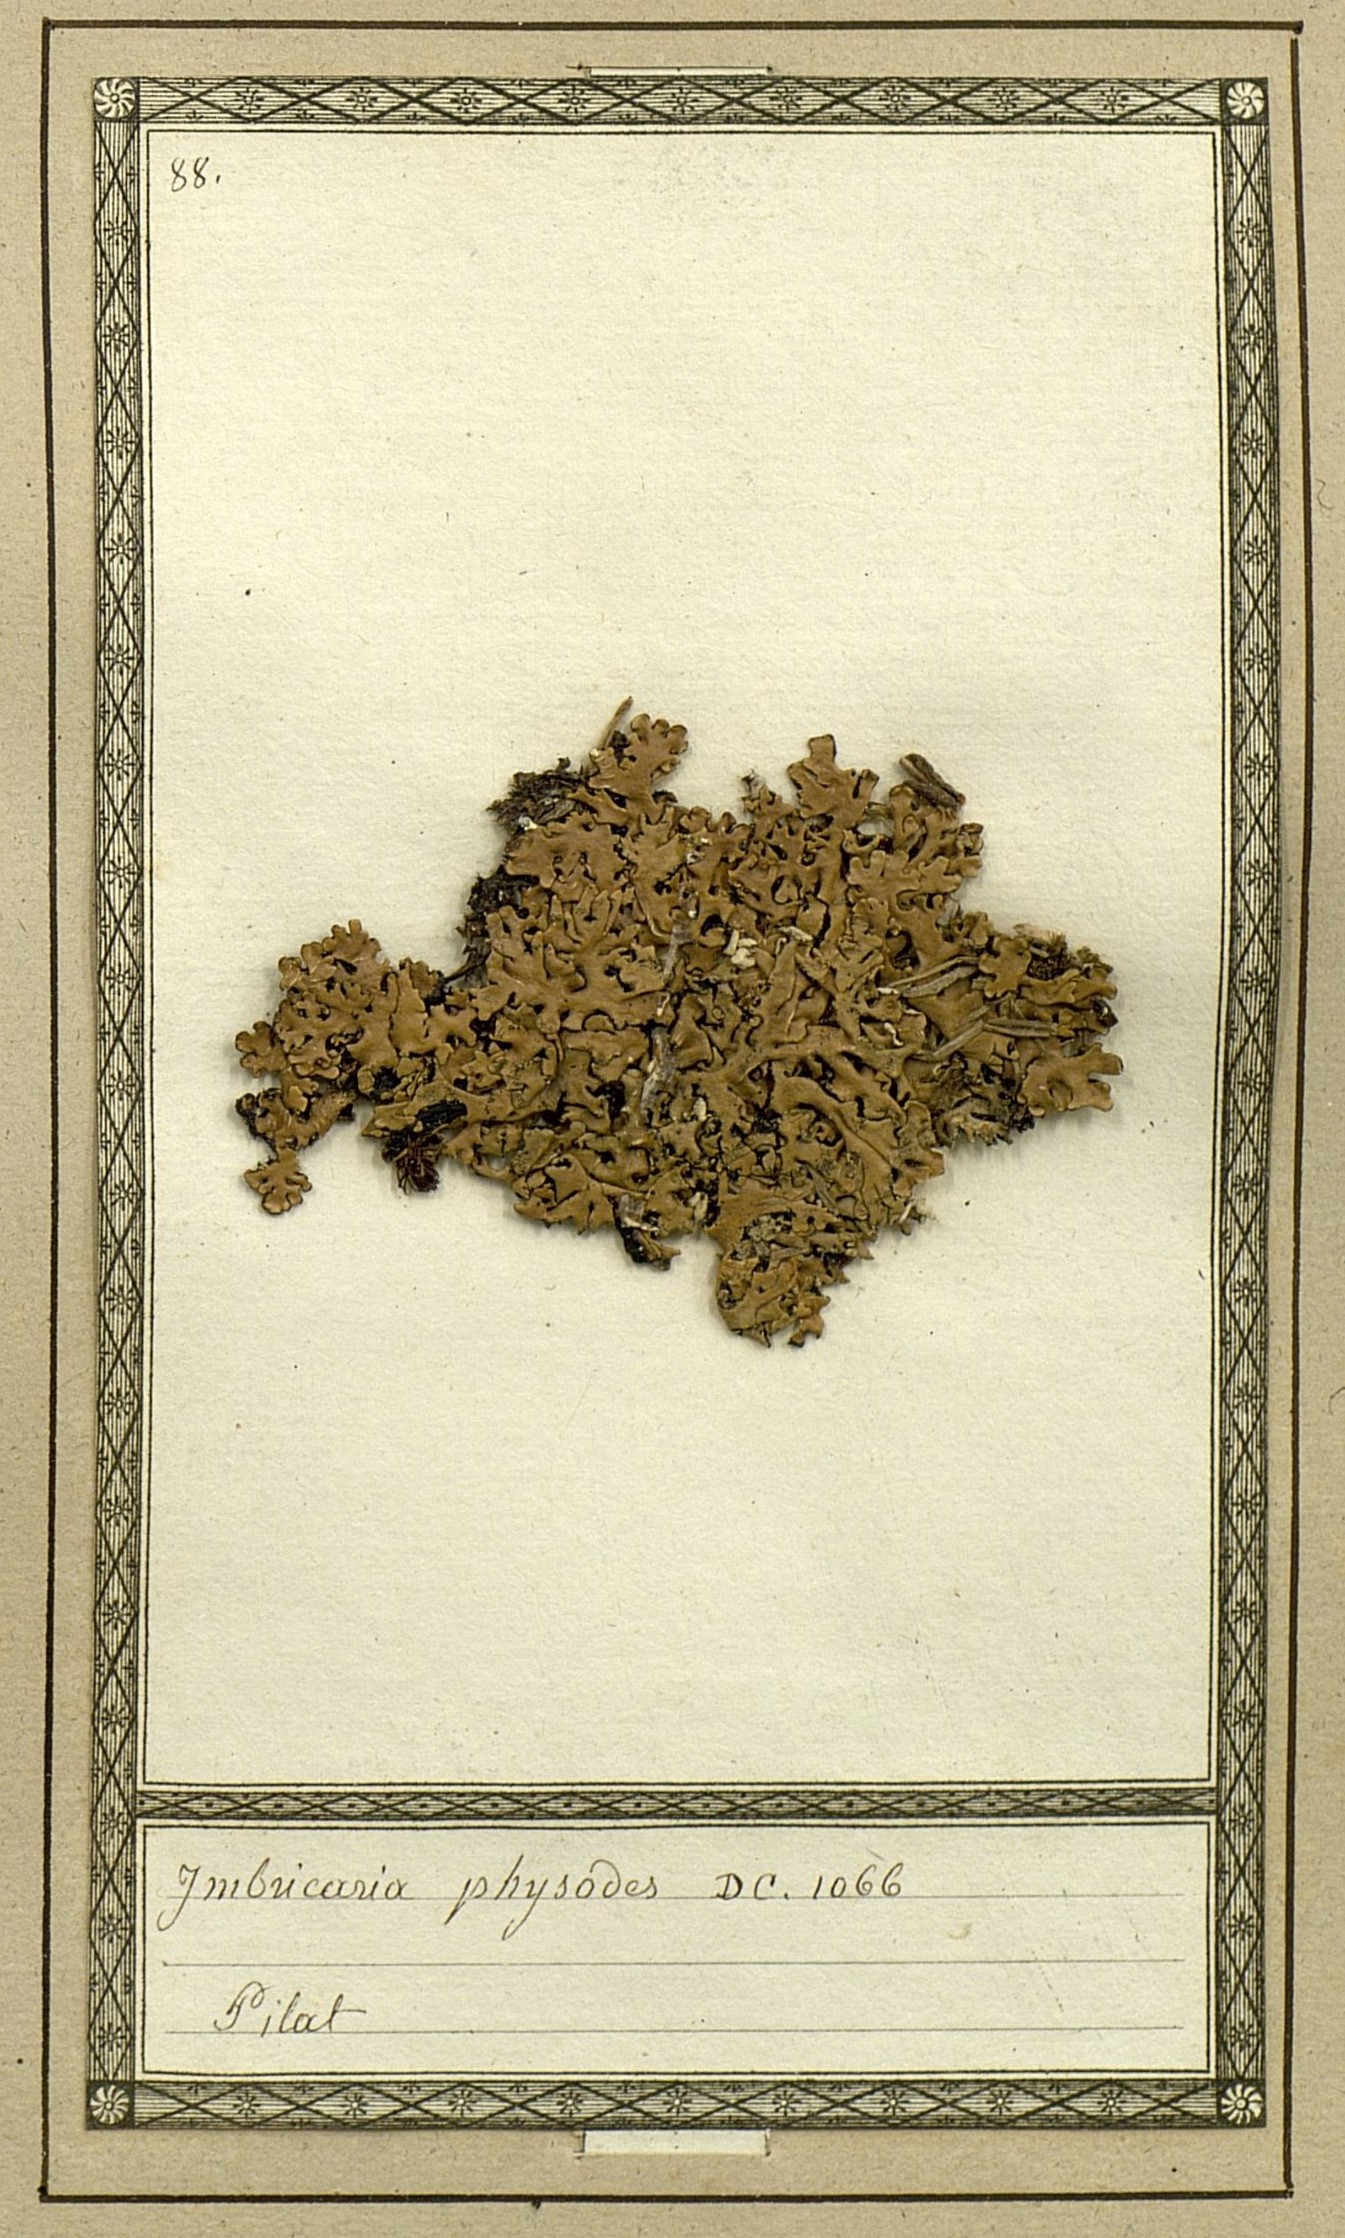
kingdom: Fungi
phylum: Ascomycota
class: Lecanoromycetes
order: Lecanorales
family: Parmeliaceae
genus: Hypogymnia
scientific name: Hypogymnia physodes
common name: Dark crottle
